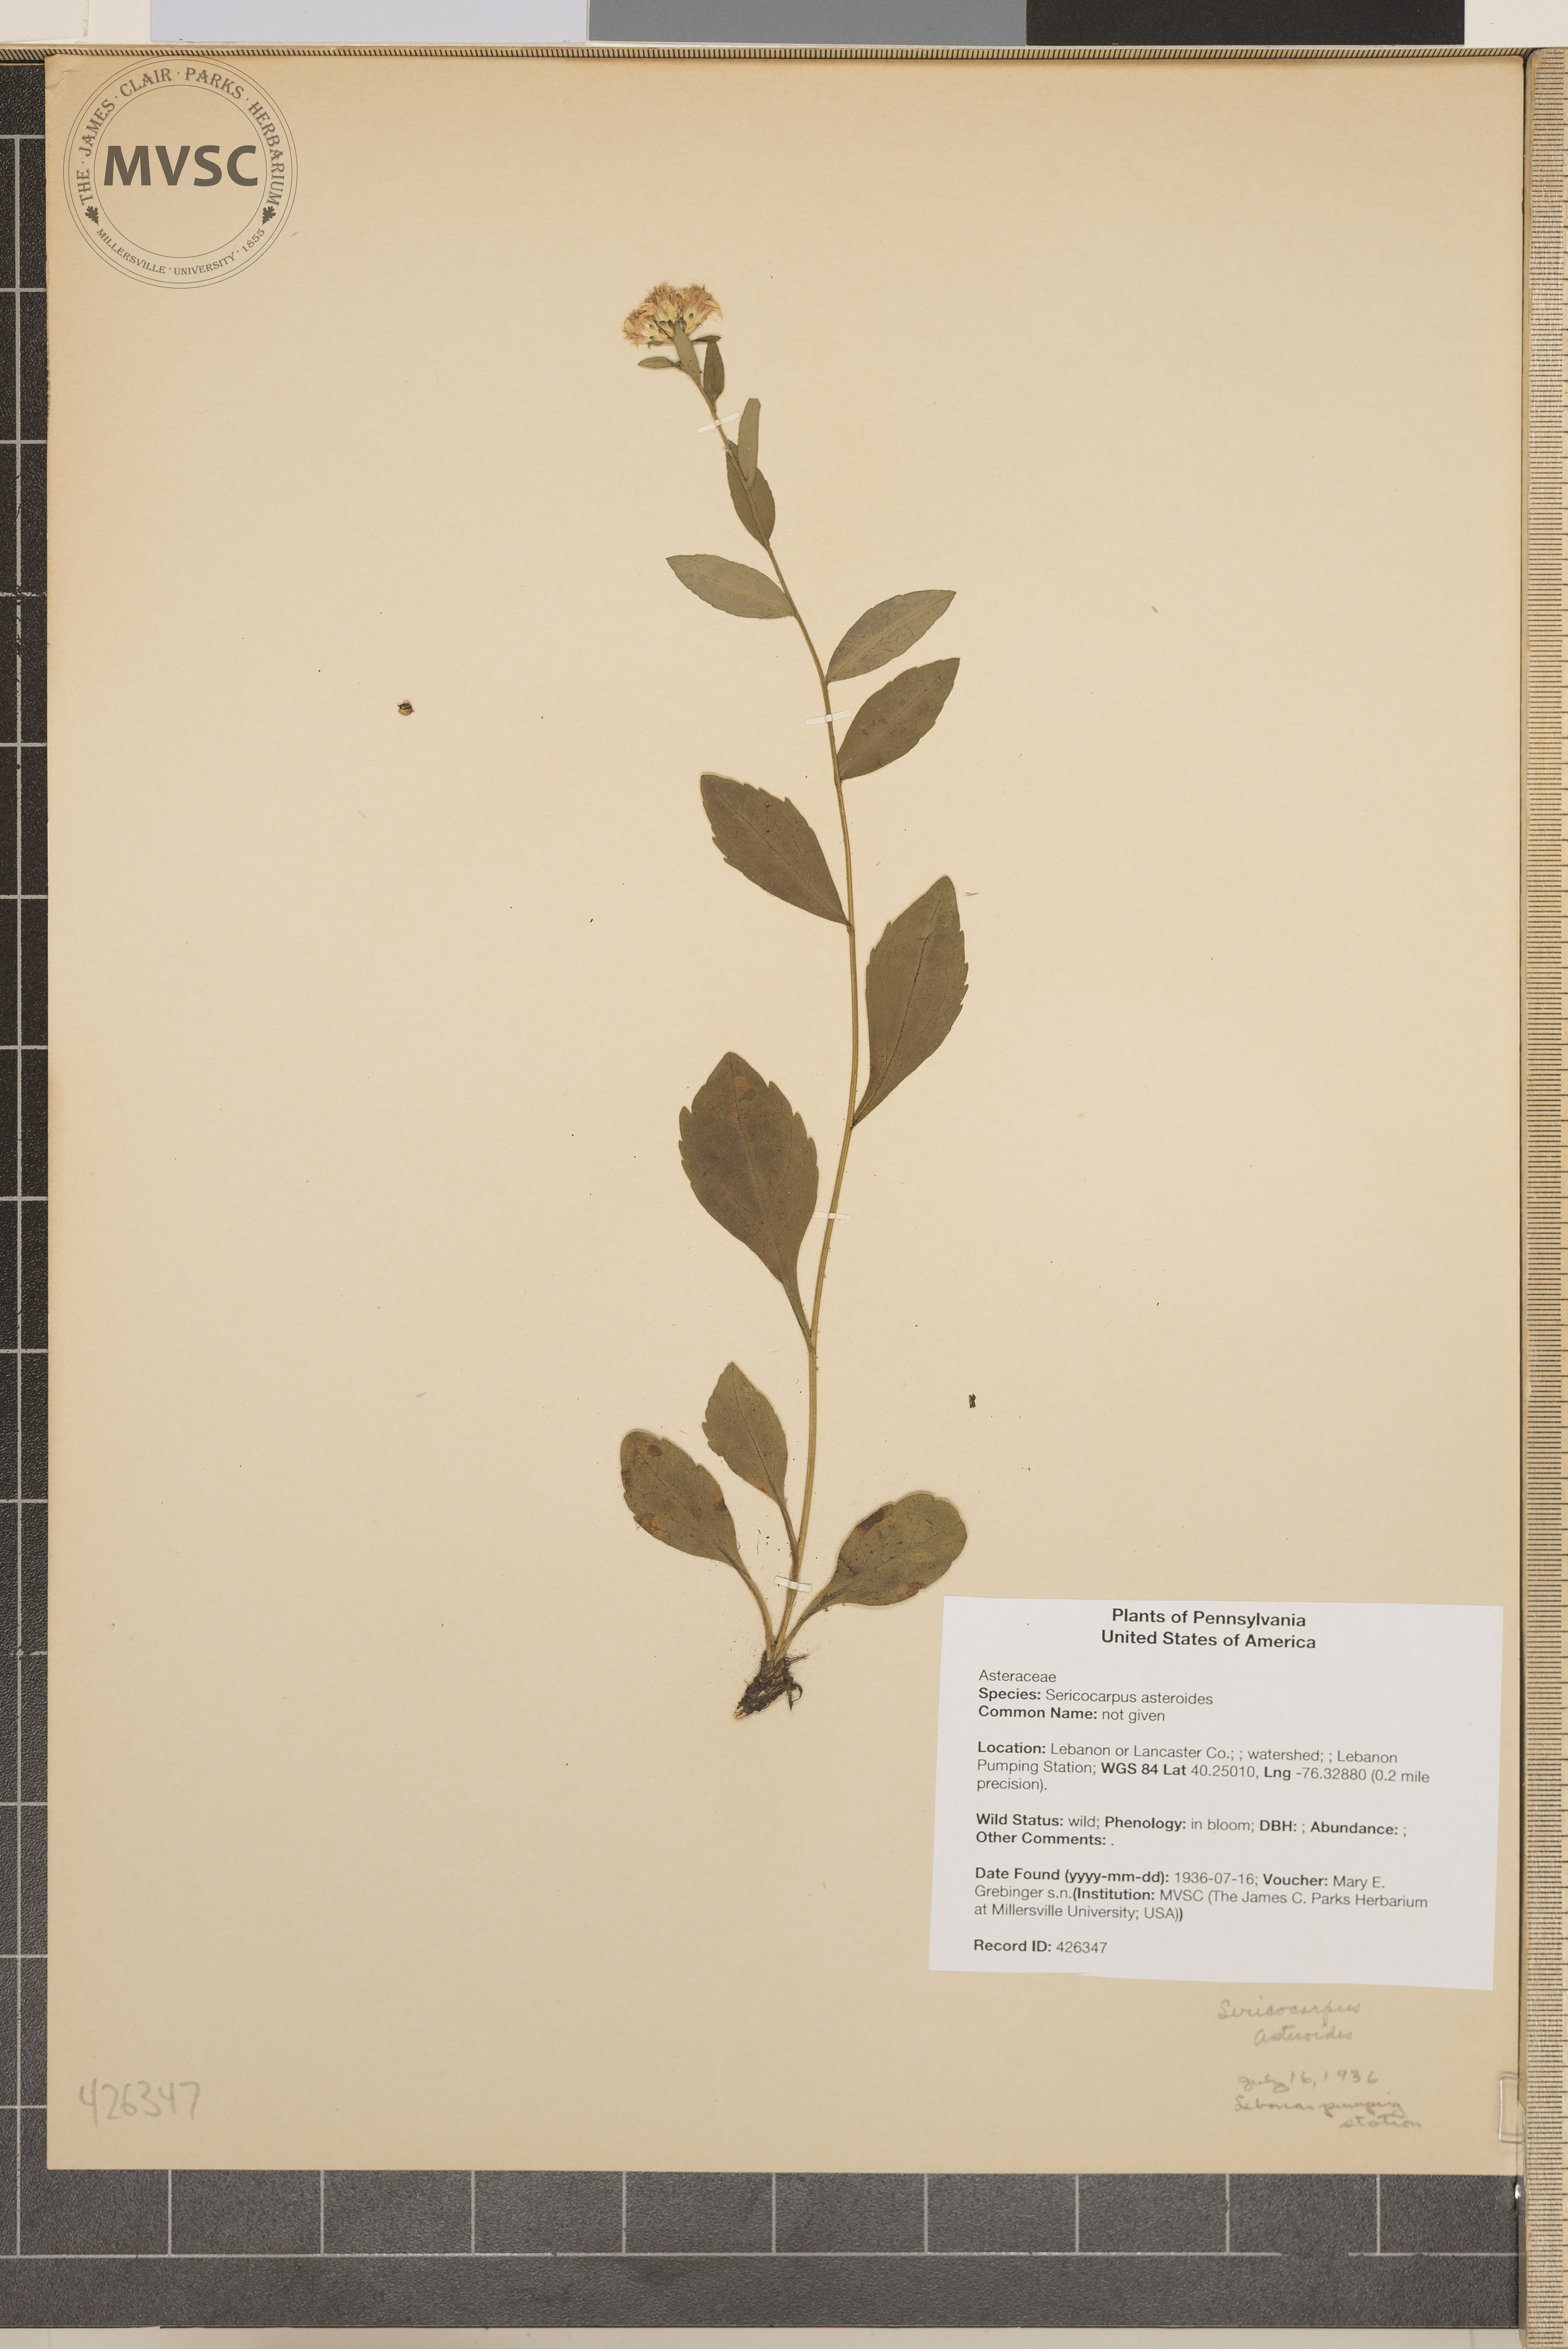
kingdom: Plantae
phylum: Tracheophyta
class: Magnoliopsida
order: Asterales
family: Asteraceae
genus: Sericocarpus
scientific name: Sericocarpus asteroides
